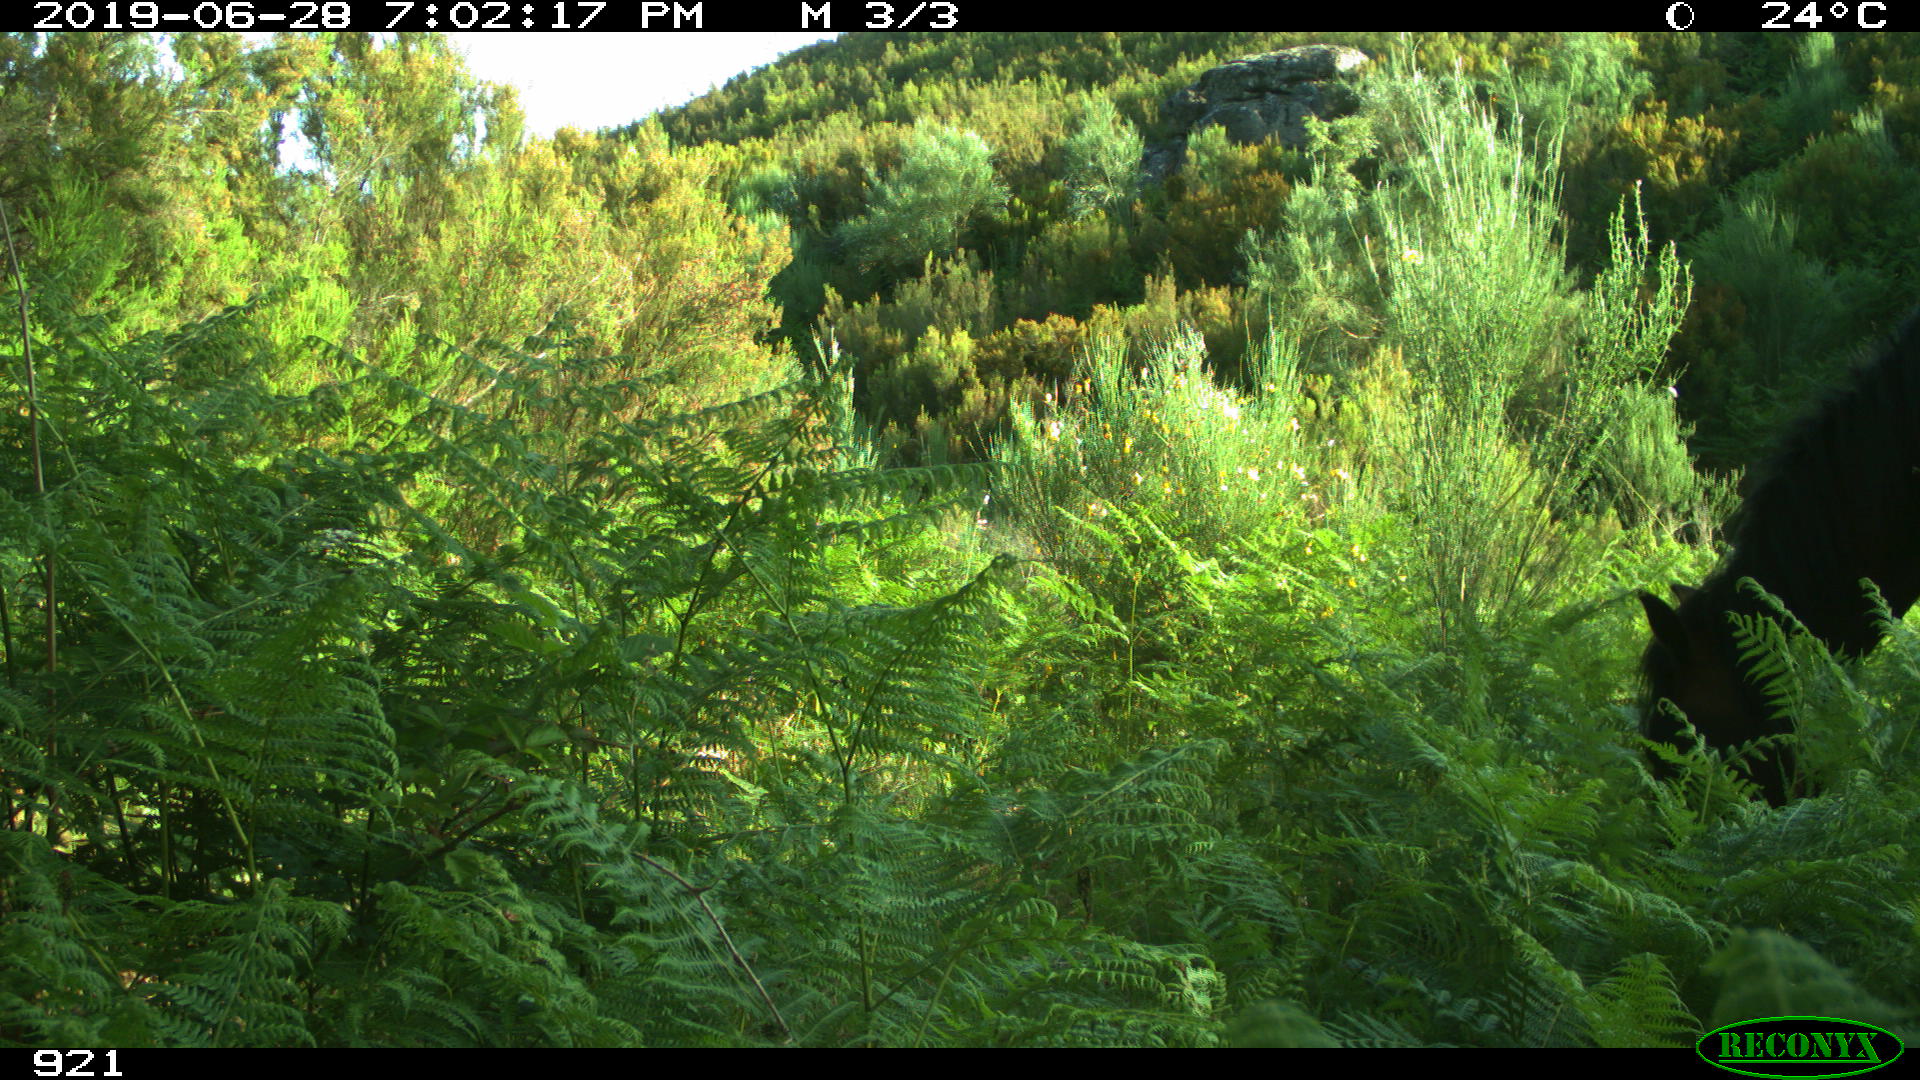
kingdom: Animalia
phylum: Chordata
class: Mammalia
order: Perissodactyla
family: Equidae
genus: Equus
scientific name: Equus caballus
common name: Horse
